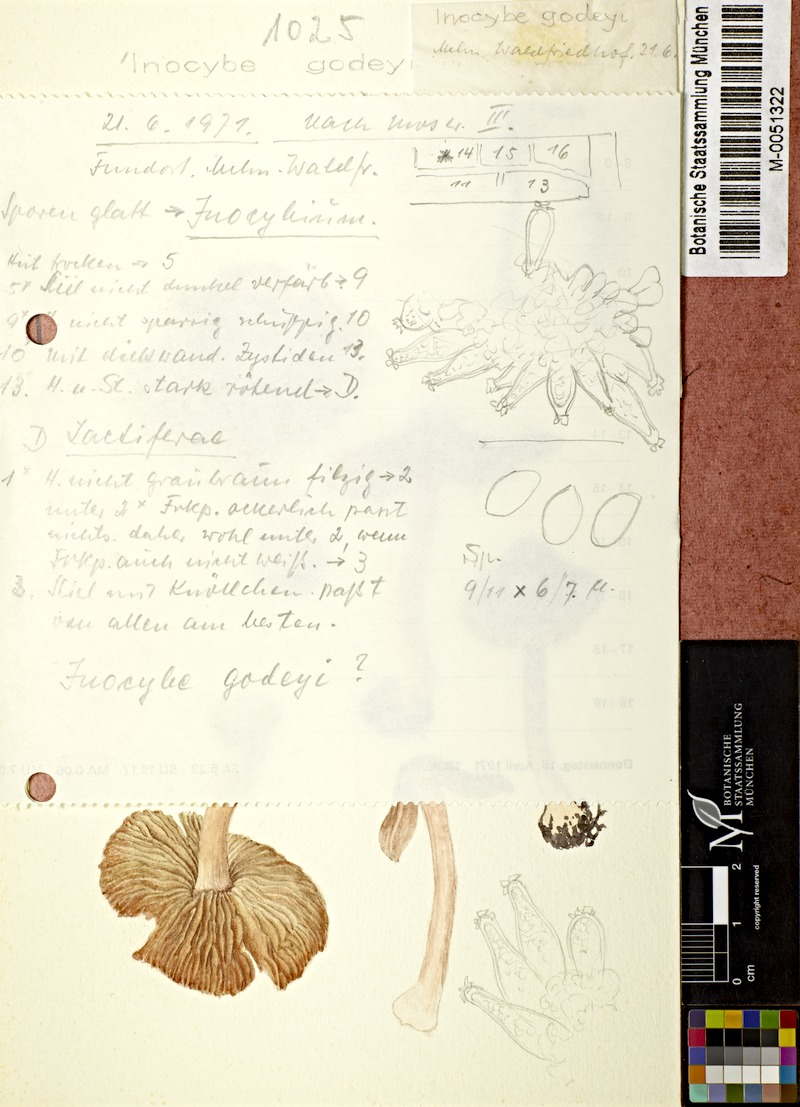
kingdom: Fungi
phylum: Basidiomycota
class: Agaricomycetes
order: Agaricales
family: Inocybaceae
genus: Inocybe
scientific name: Inocybe godeyi
